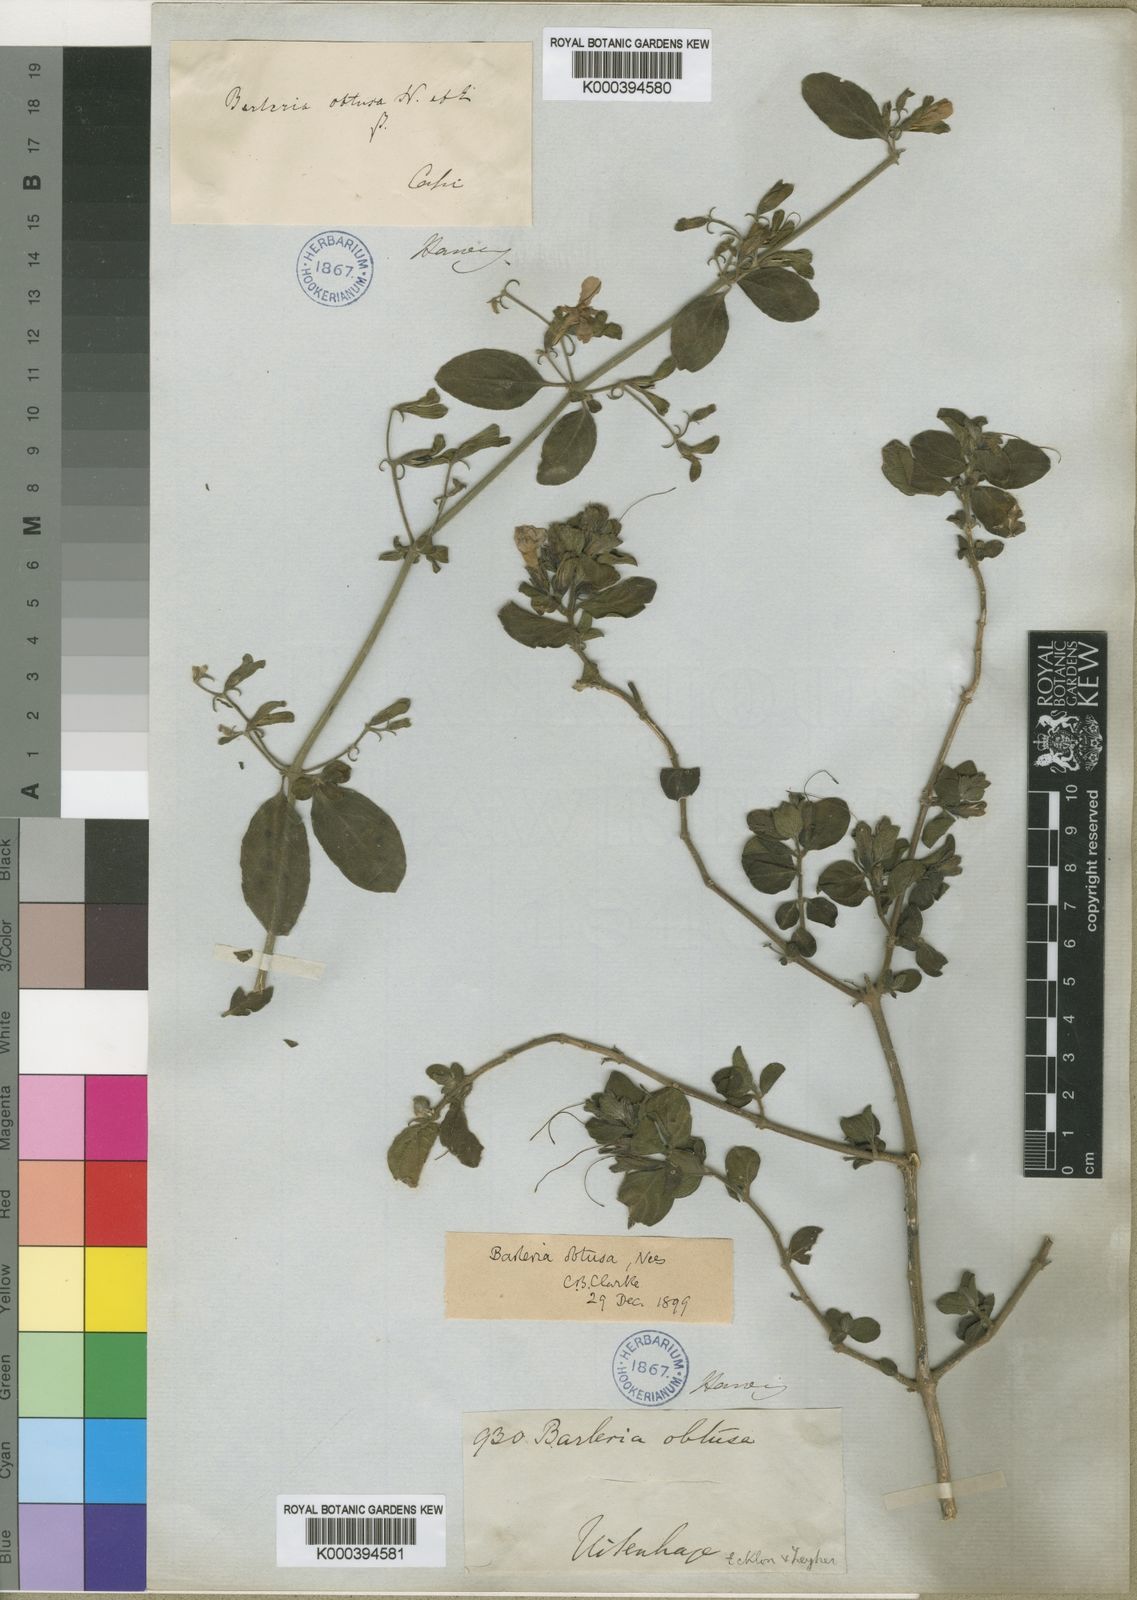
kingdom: Plantae
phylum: Tracheophyta
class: Magnoliopsida
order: Lamiales
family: Acanthaceae
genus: Barleria
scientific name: Barleria obtusa
